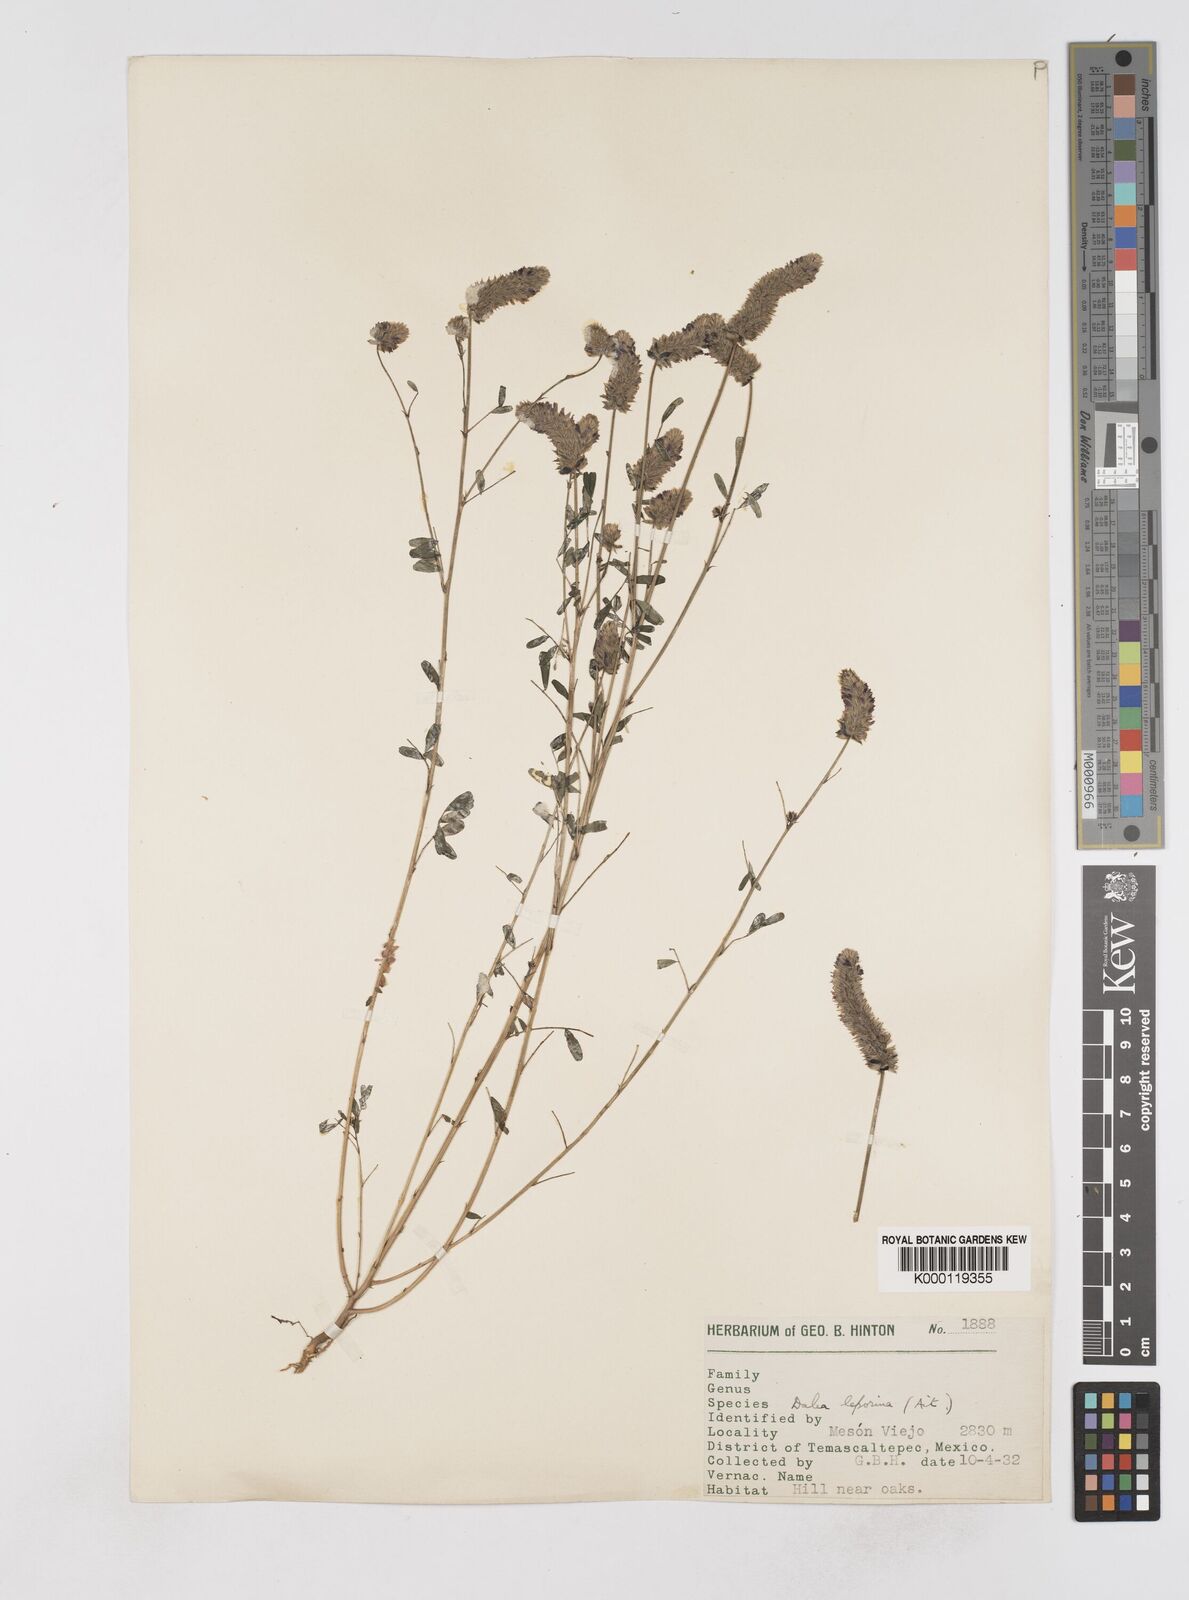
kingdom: Plantae
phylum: Tracheophyta
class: Magnoliopsida
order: Fabales
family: Fabaceae
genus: Dalea
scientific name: Dalea leporina
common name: Foxtail dalea
